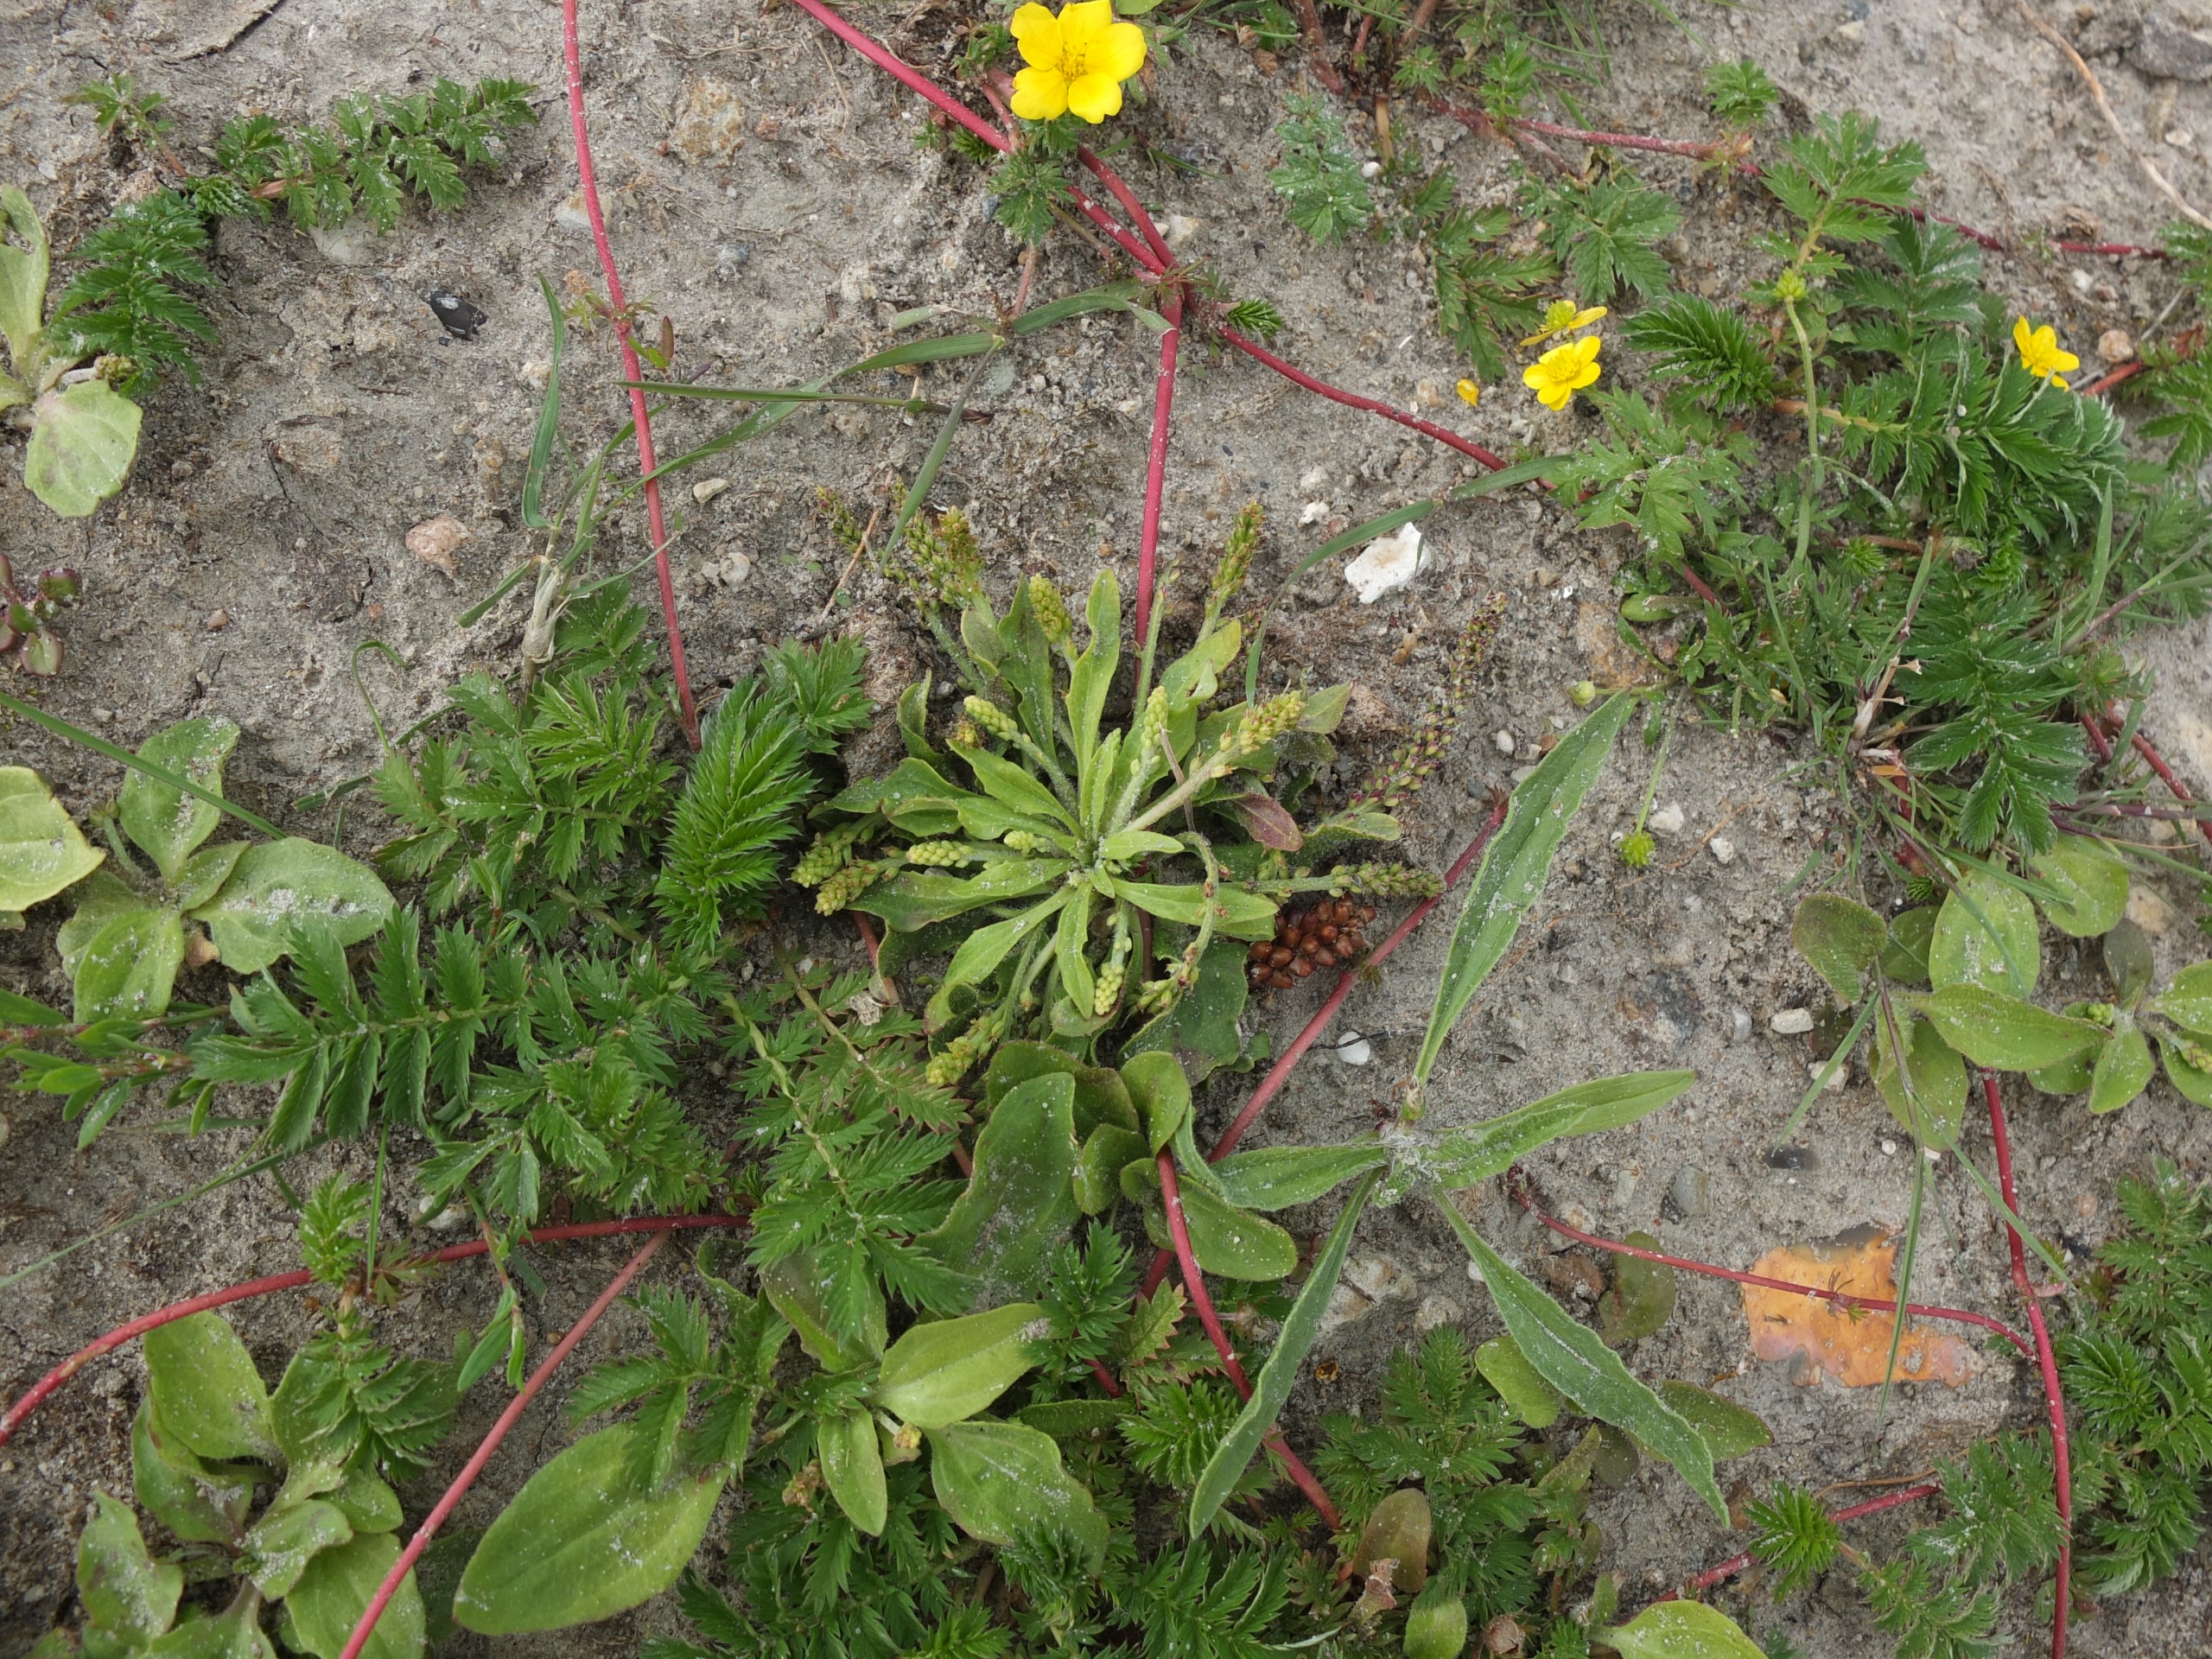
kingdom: Plantae
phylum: Tracheophyta
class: Magnoliopsida
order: Lamiales
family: Plantaginaceae
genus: Plantago
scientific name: Plantago uliginosa
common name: Ager-vejbred
